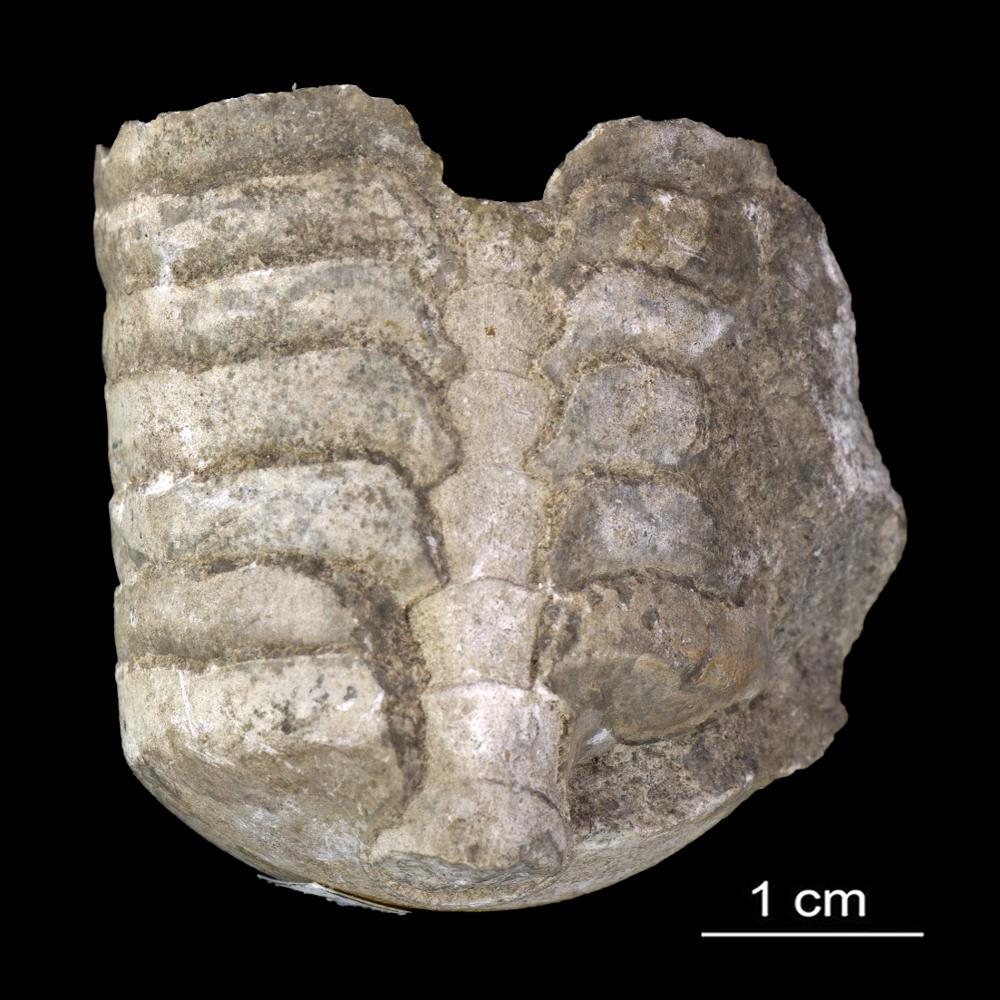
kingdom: Animalia
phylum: Mollusca
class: Cephalopoda
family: Endoceratidae
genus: Endoceras
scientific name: Endoceras
